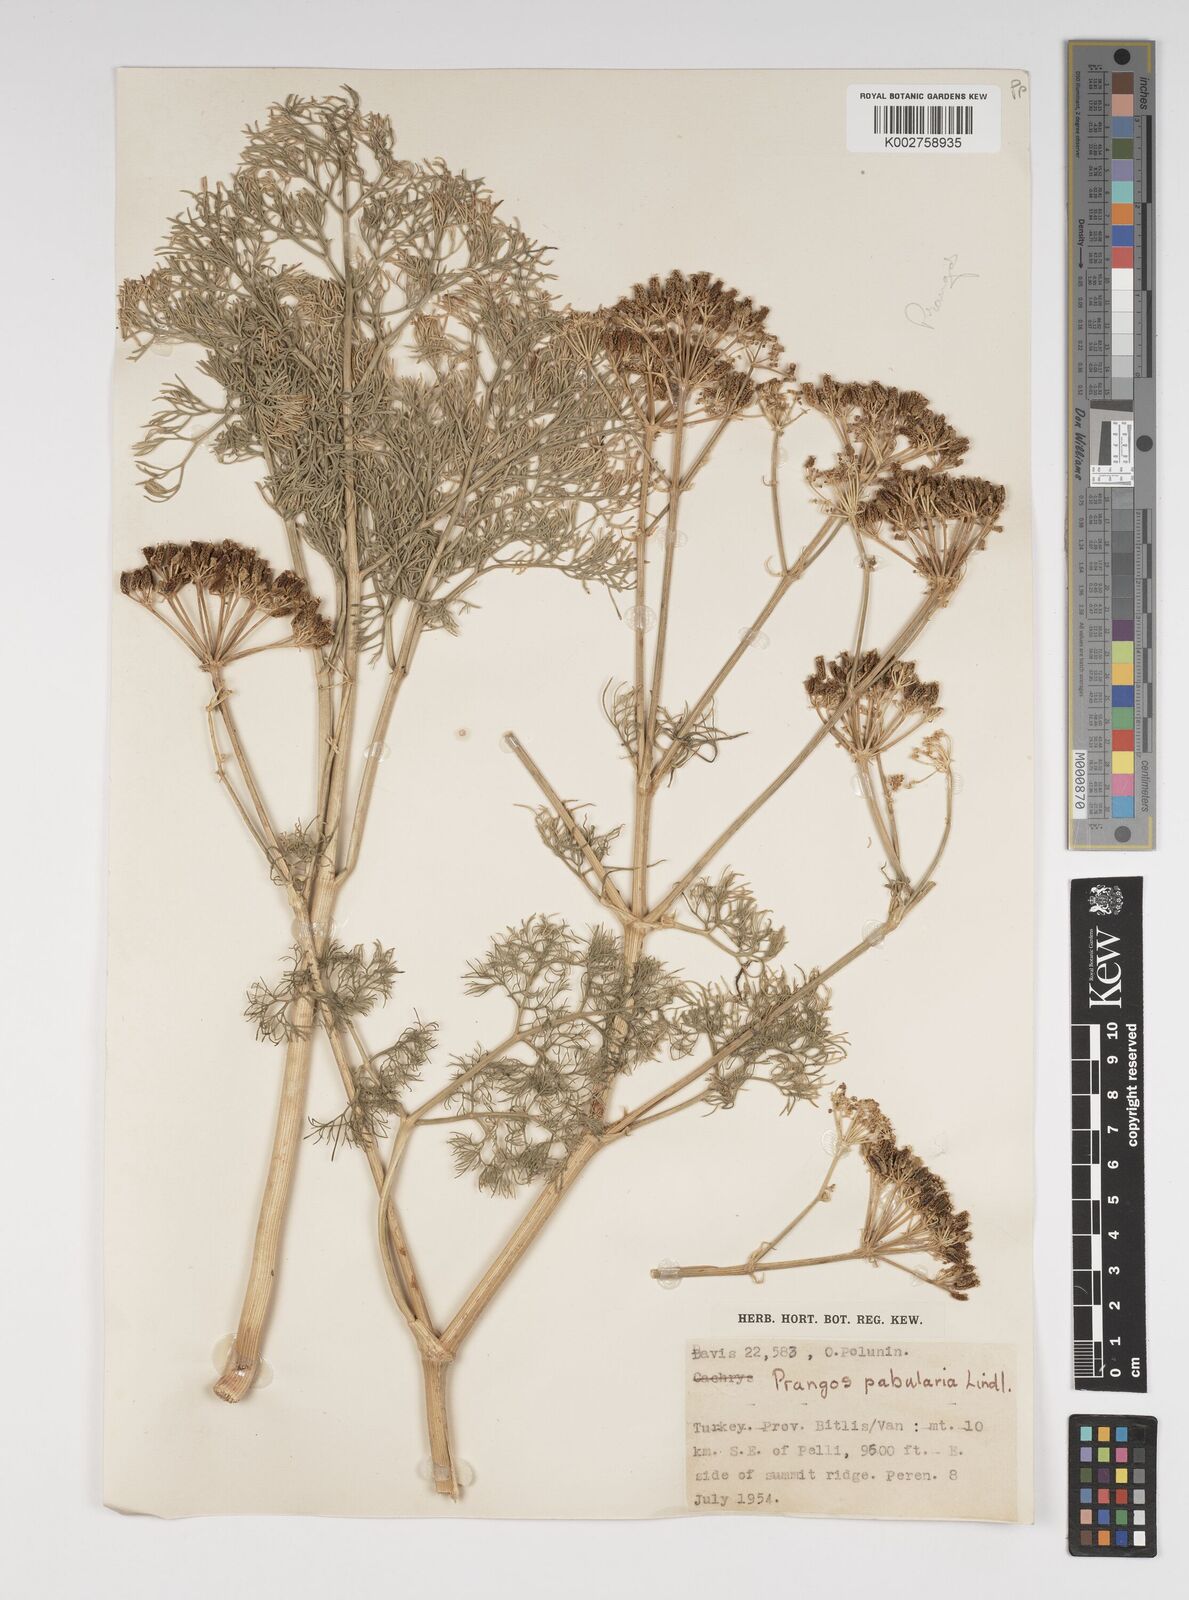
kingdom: Plantae
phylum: Tracheophyta
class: Magnoliopsida
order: Apiales
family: Apiaceae
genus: Prangos
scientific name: Prangos pabularia
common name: Yugan
